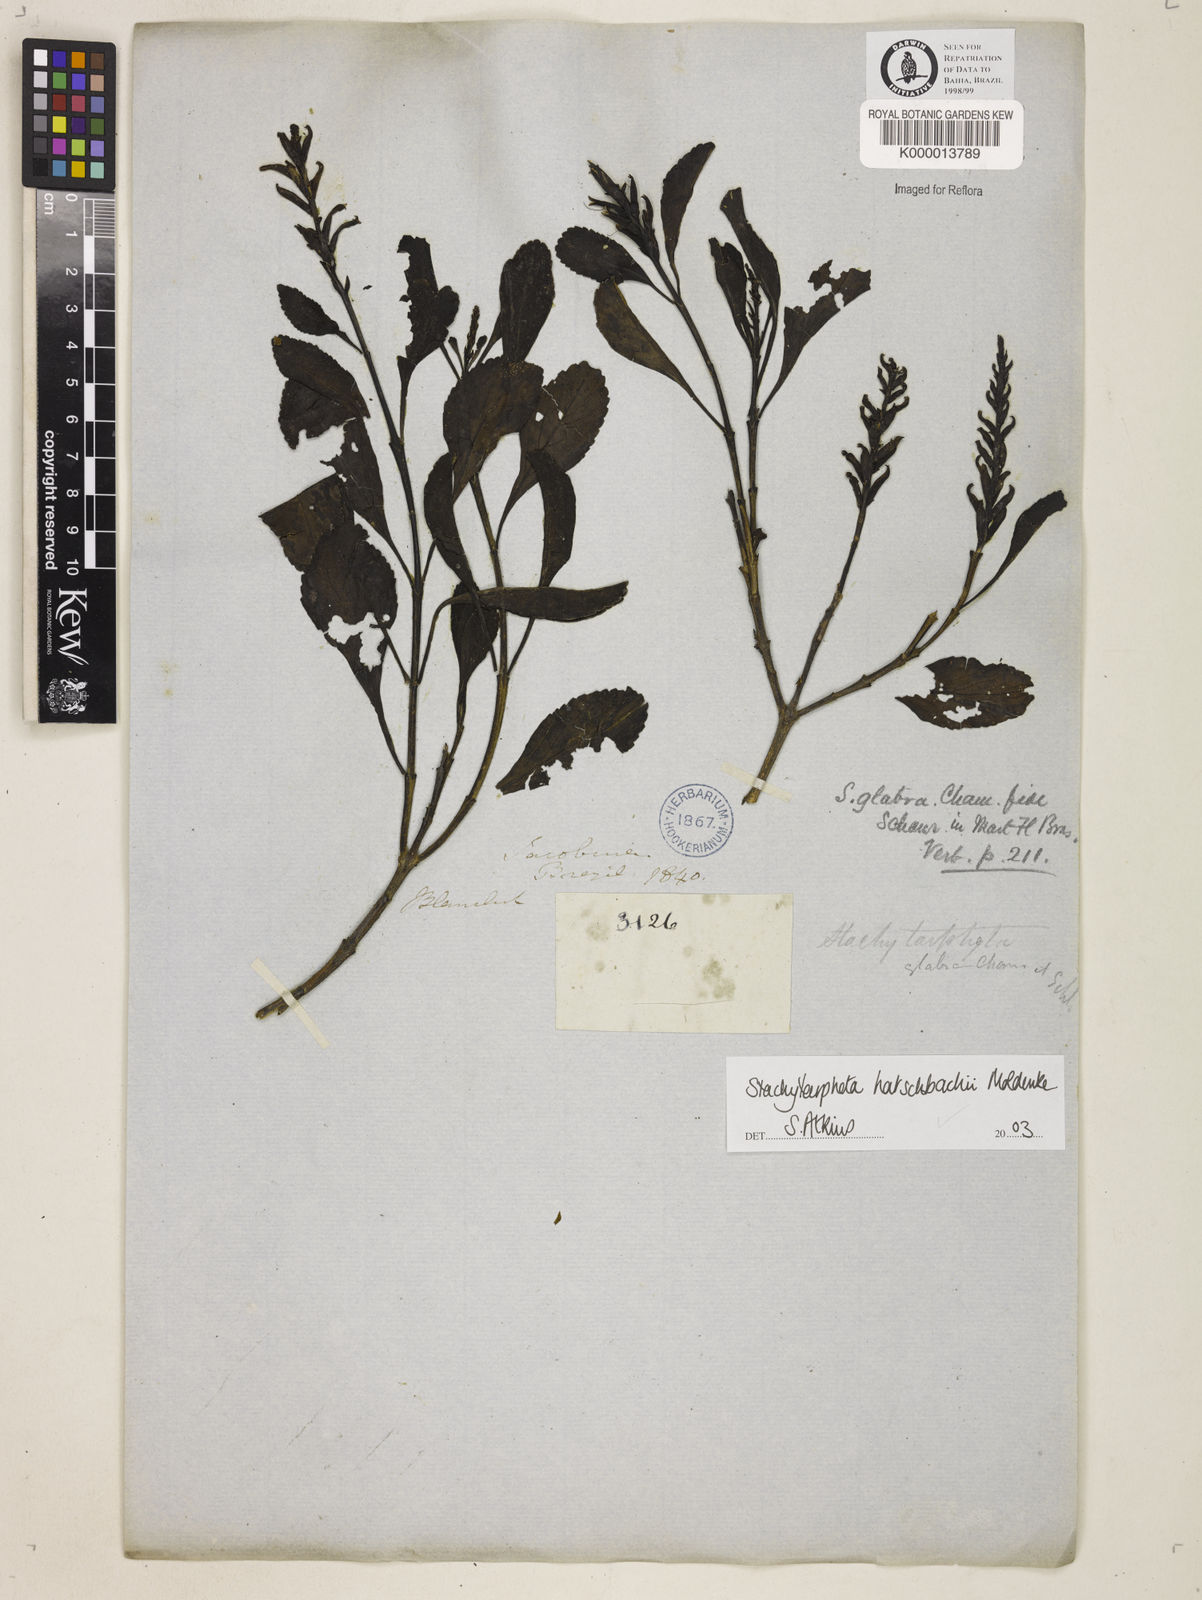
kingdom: Plantae
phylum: Tracheophyta
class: Magnoliopsida
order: Lamiales
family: Verbenaceae
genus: Stachytarpheta
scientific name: Stachytarpheta glabra
